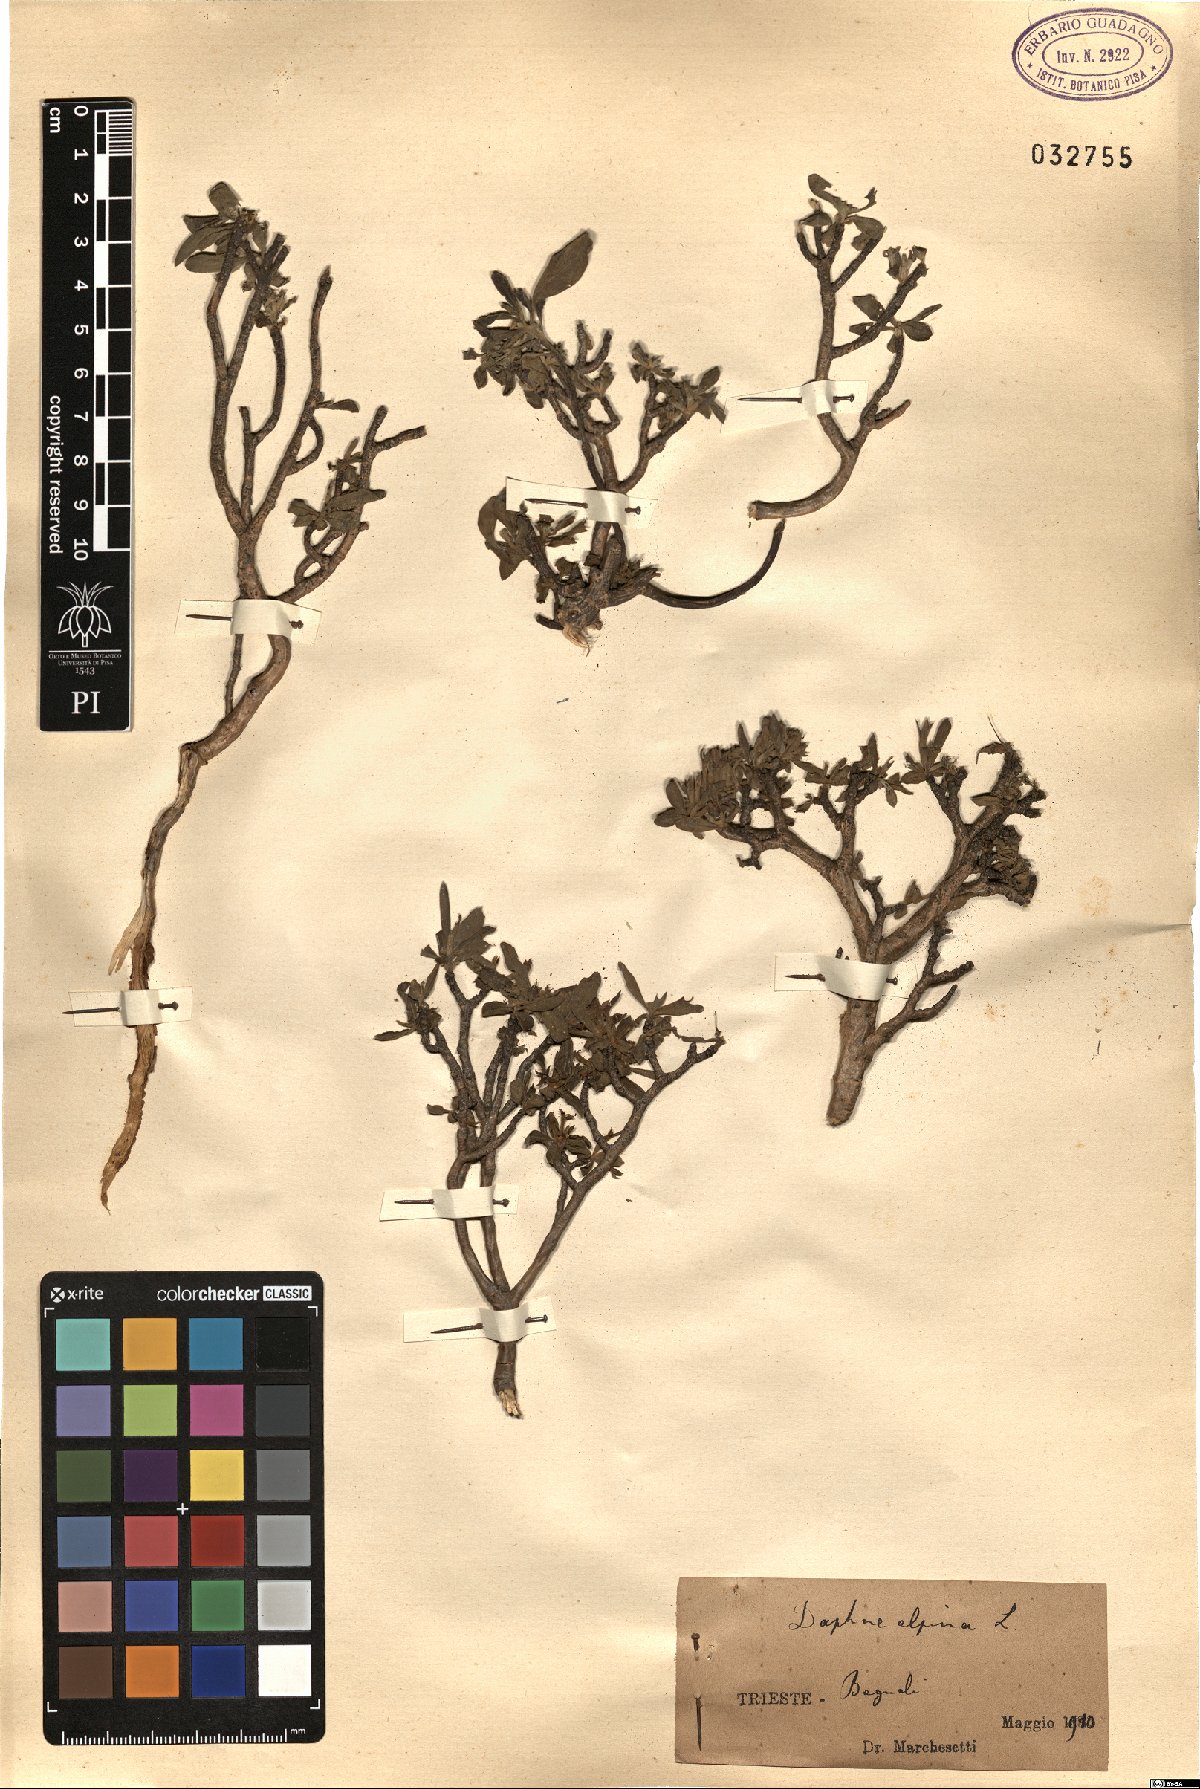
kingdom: Plantae
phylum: Tracheophyta
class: Magnoliopsida
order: Malvales
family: Thymelaeaceae
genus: Daphne
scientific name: Daphne alpina
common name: Alpine daphne
